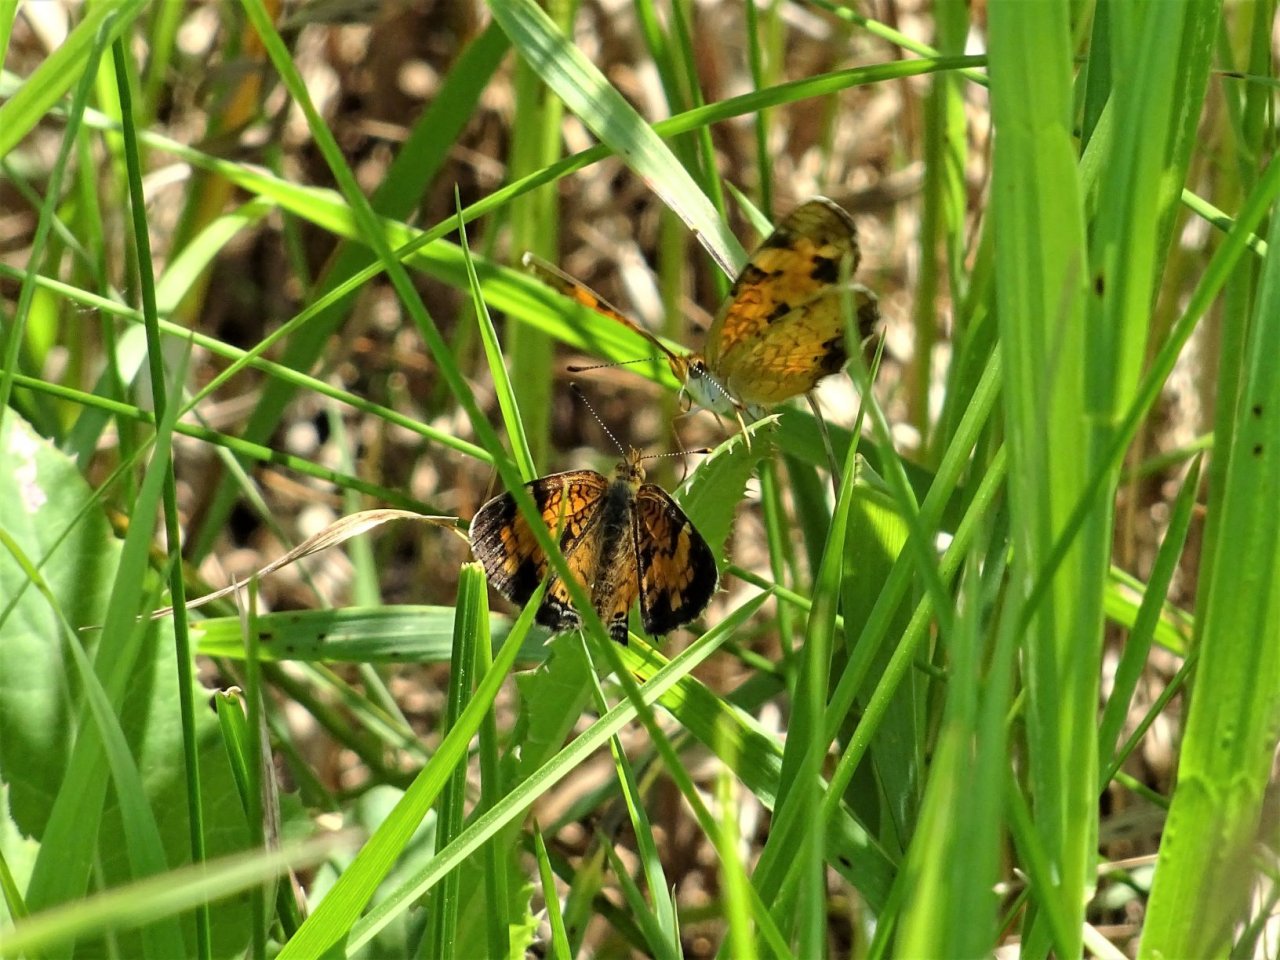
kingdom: Animalia
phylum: Arthropoda
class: Insecta
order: Lepidoptera
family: Nymphalidae
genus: Phyciodes
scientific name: Phyciodes tharos
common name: Northern Crescent
